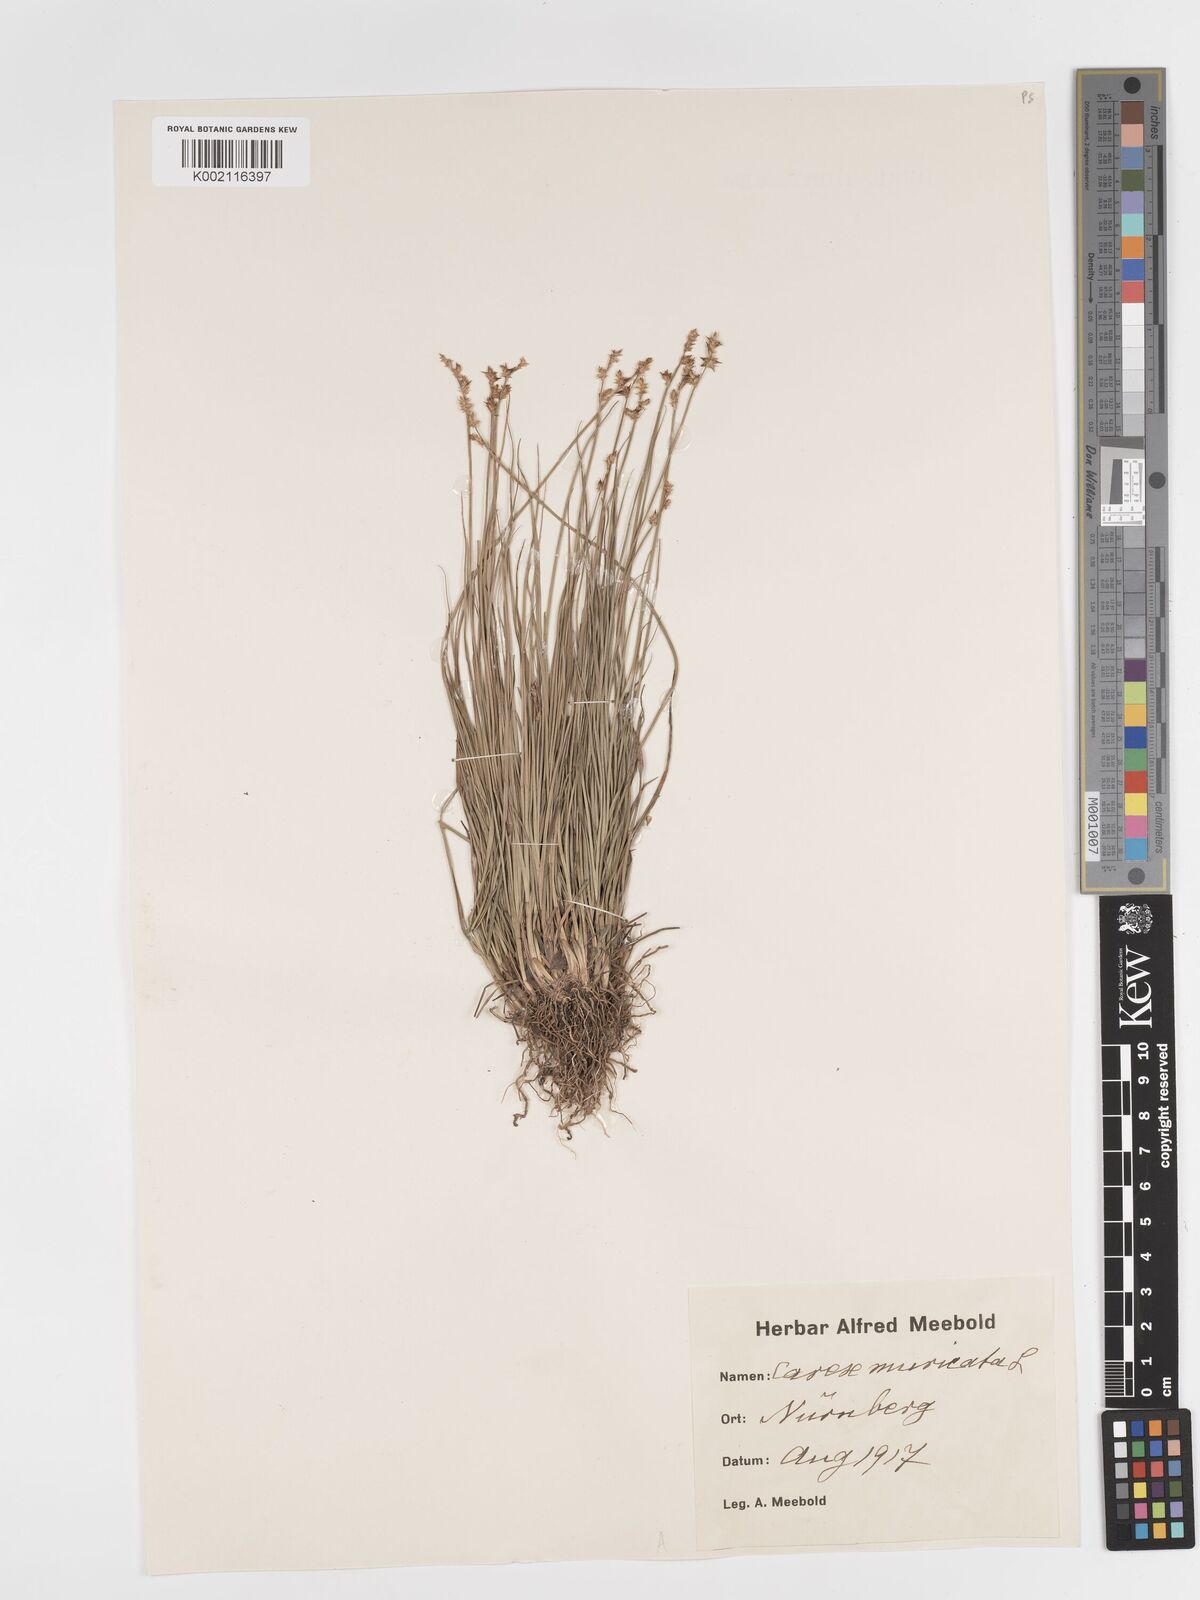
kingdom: Plantae
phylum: Tracheophyta
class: Liliopsida
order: Poales
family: Cyperaceae
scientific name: Cyperaceae
